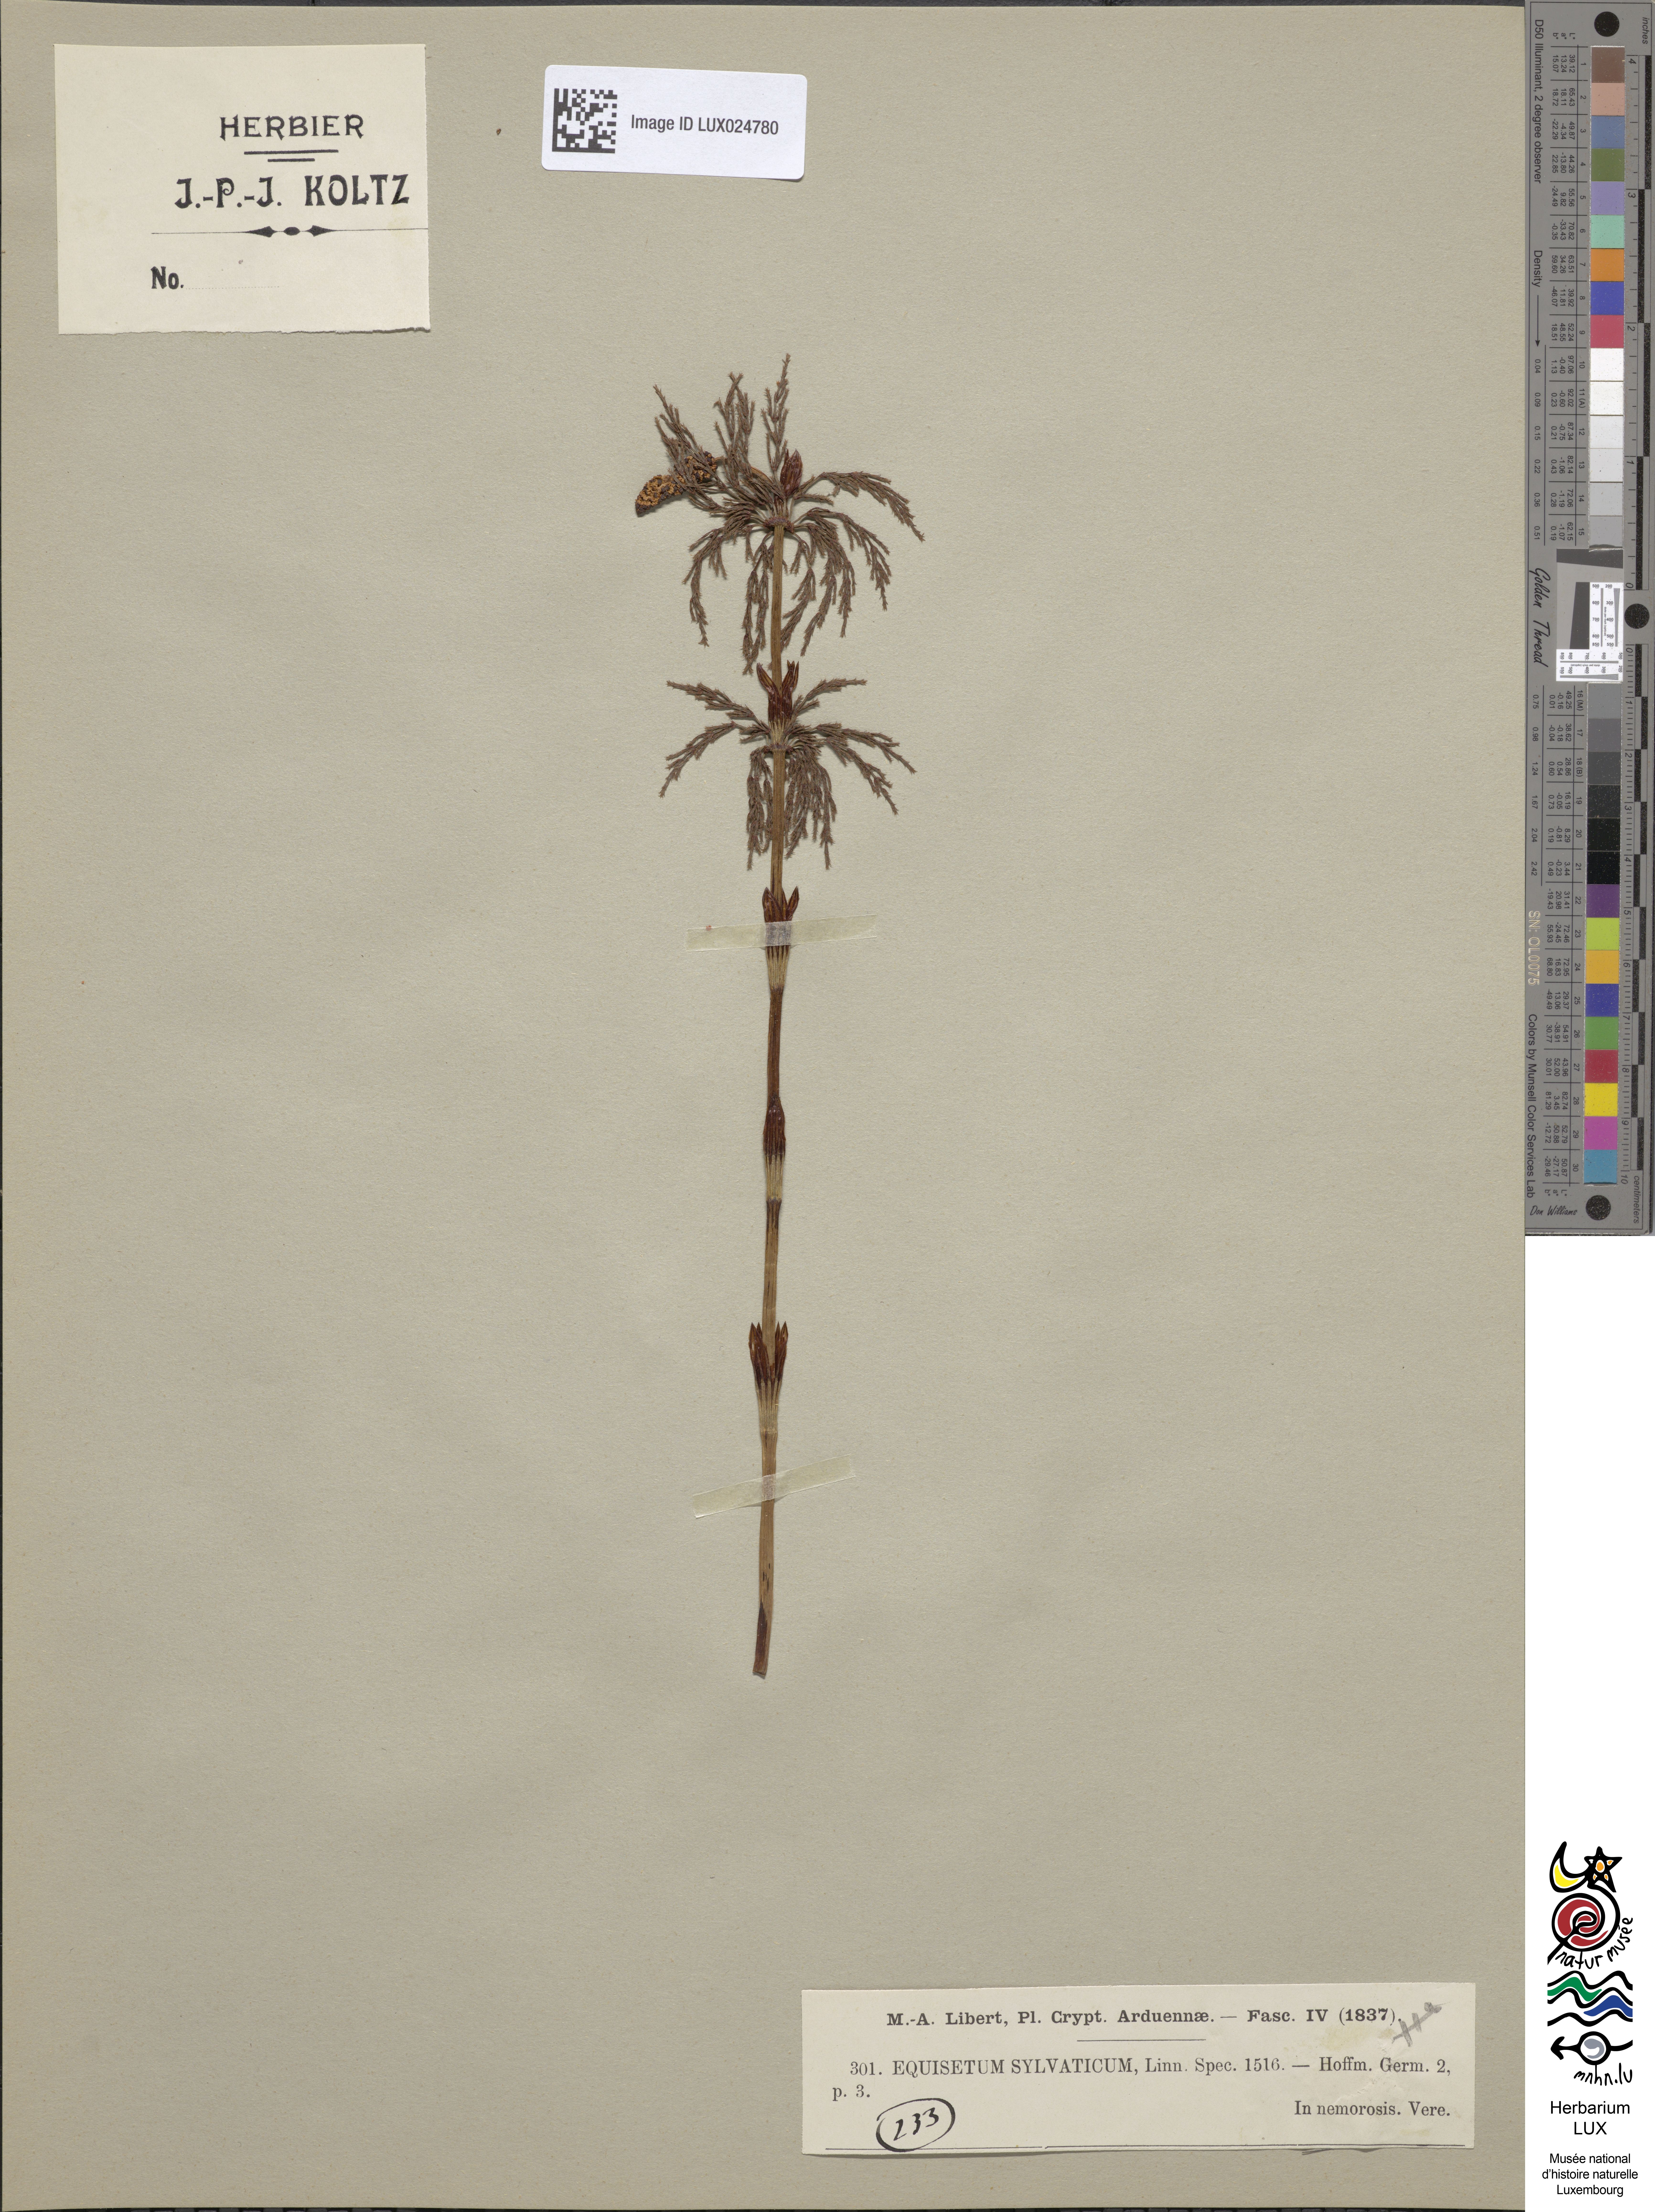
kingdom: Plantae
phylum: Tracheophyta
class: Polypodiopsida
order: Equisetales
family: Equisetaceae
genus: Equisetum
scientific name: Equisetum sylvaticum
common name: Wood horsetail
